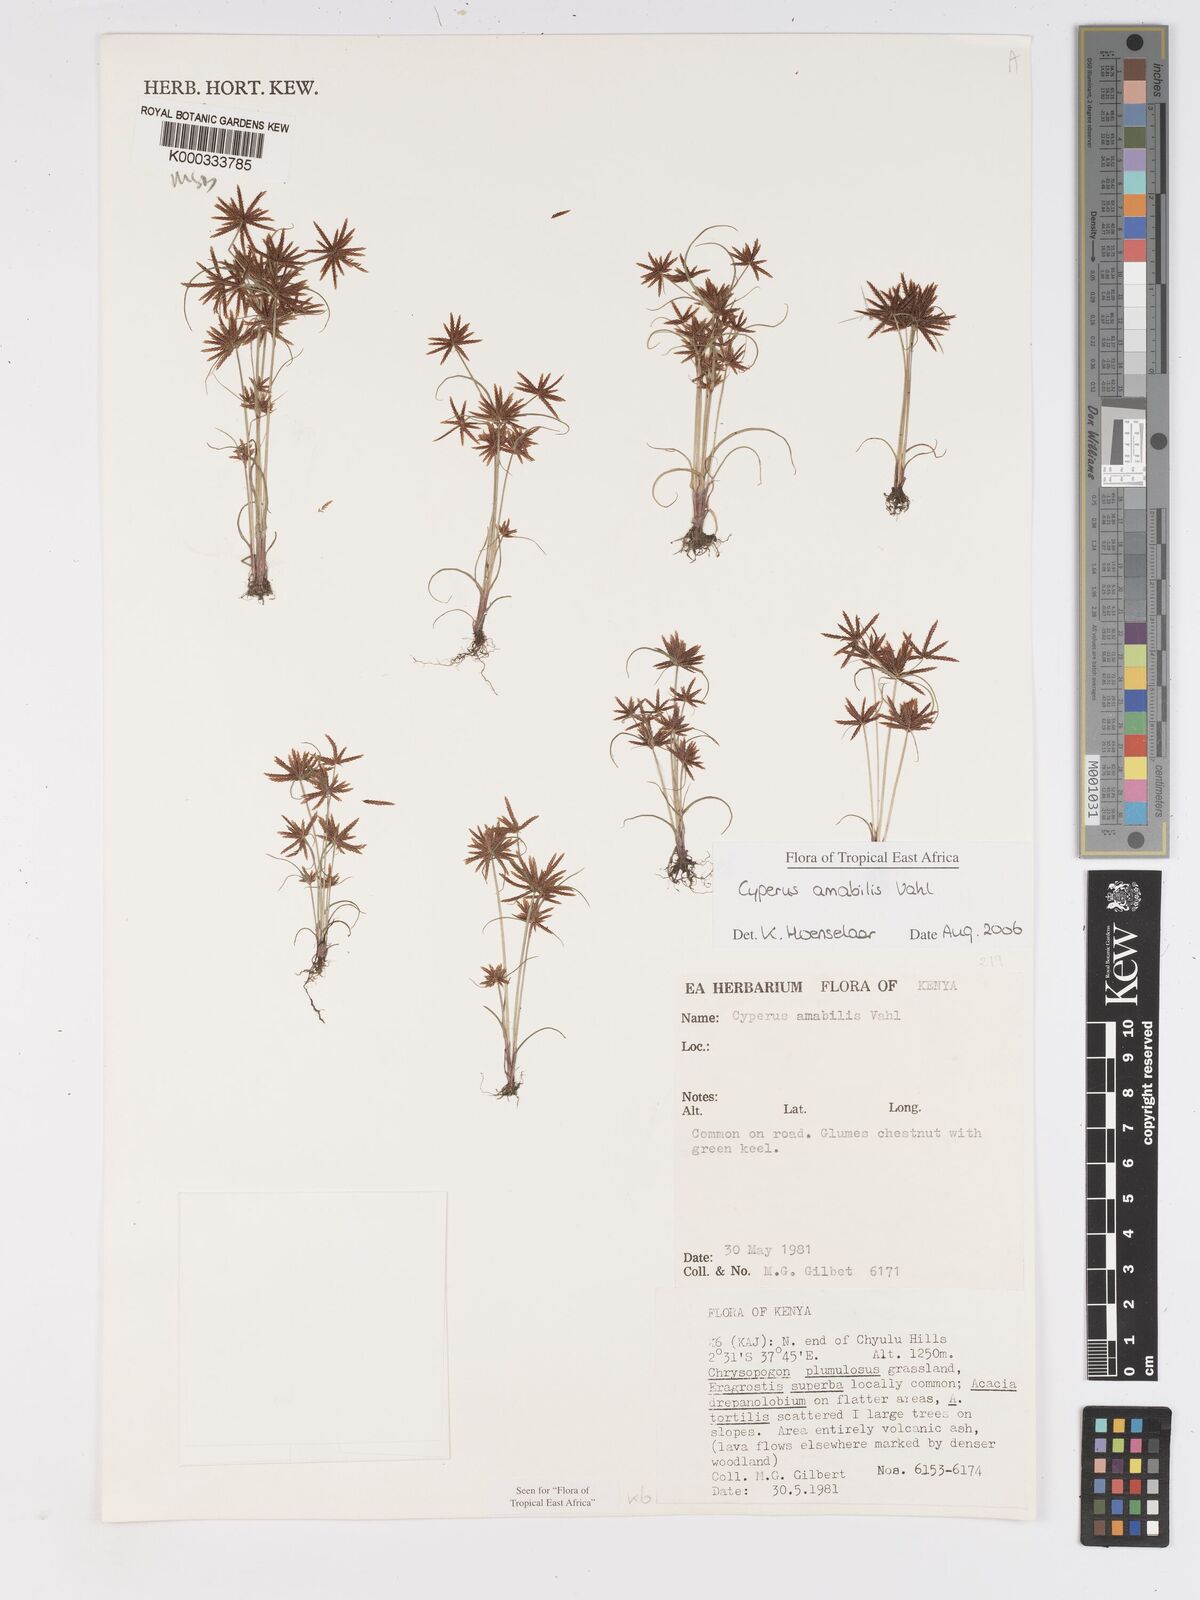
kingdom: Plantae
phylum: Tracheophyta
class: Liliopsida
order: Poales
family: Cyperaceae
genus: Cyperus
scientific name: Cyperus amabilis
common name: Foothill flat sedge
